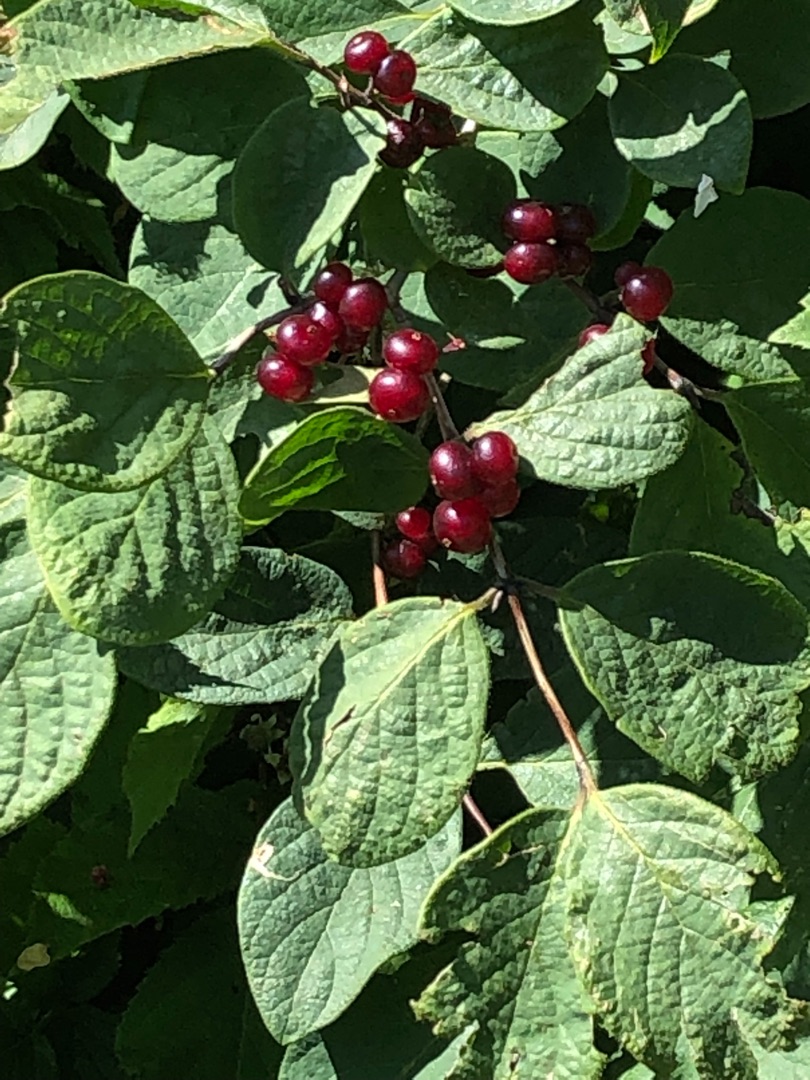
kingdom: Plantae
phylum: Tracheophyta
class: Magnoliopsida
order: Dipsacales
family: Caprifoliaceae
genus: Lonicera
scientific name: Lonicera xylosteum
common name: Dunet gedeblad
